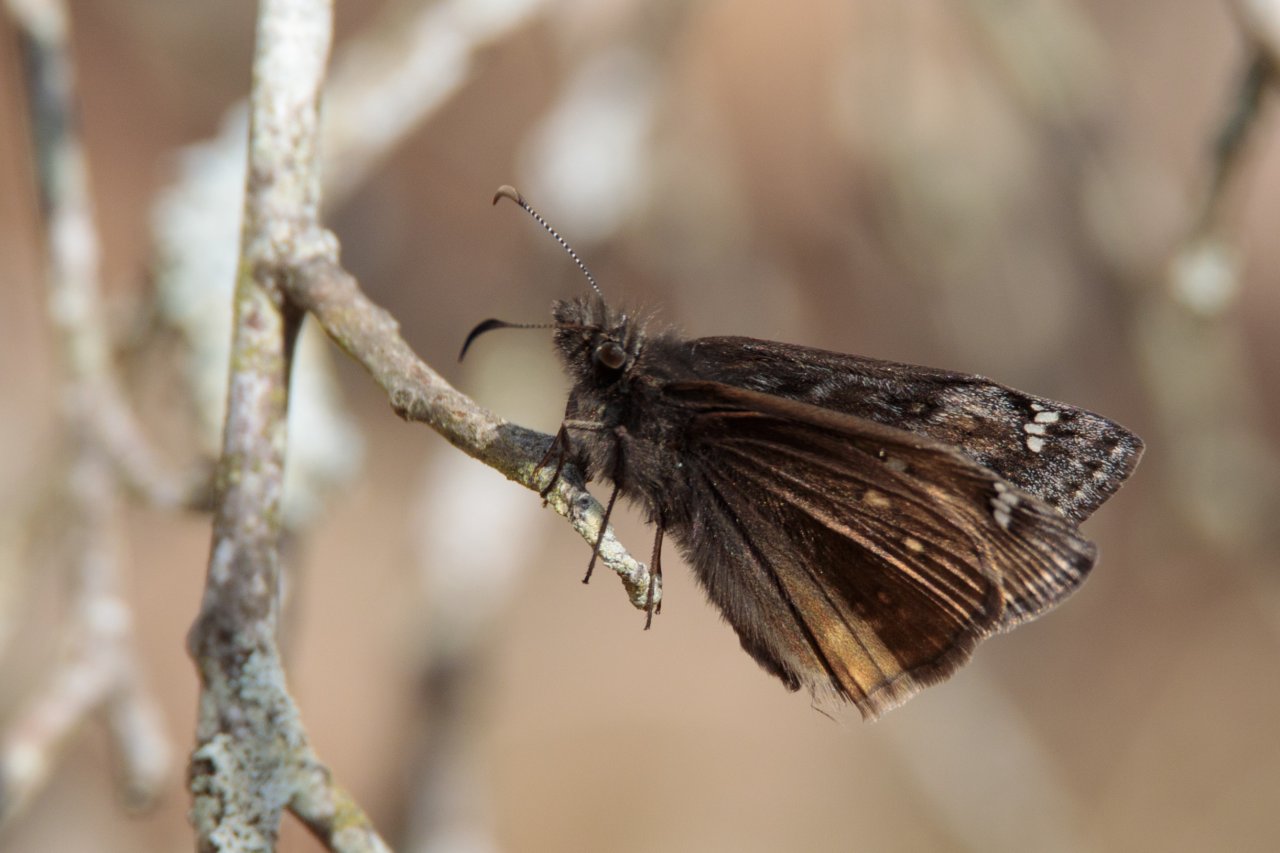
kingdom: Animalia
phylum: Arthropoda
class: Insecta
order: Lepidoptera
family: Hesperiidae
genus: Gesta
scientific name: Gesta
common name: Juvenal's Duskywing
